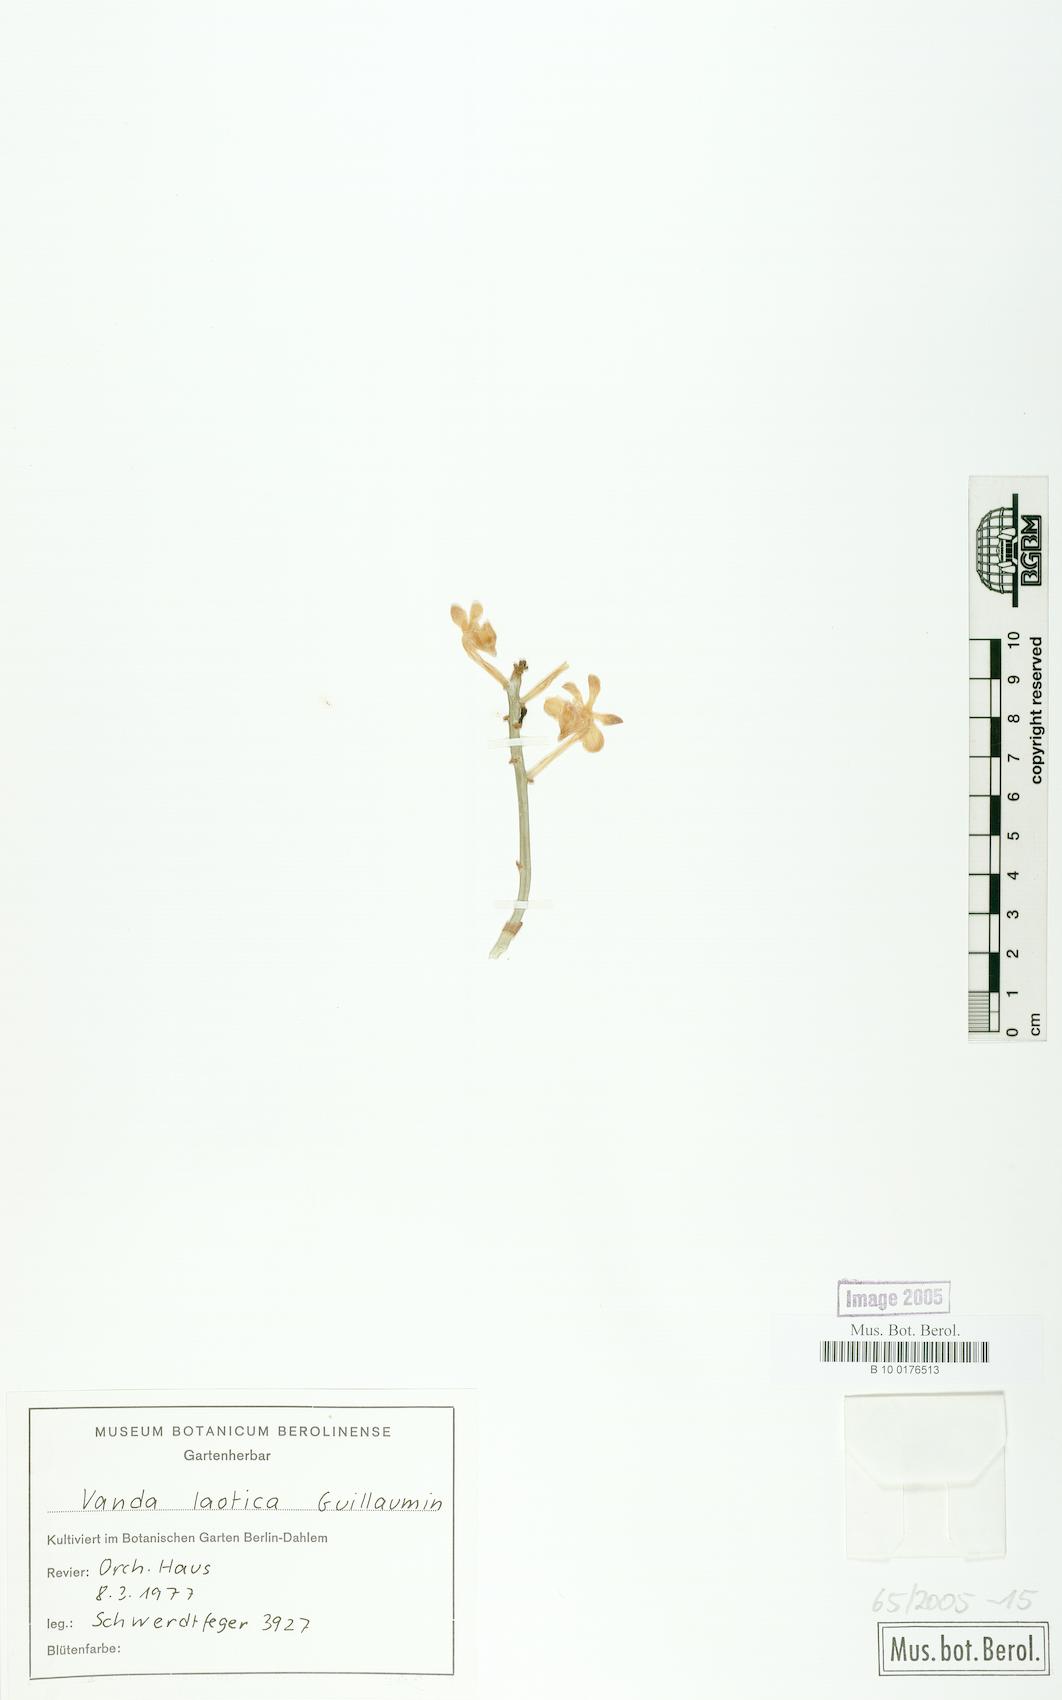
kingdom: Plantae
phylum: Tracheophyta
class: Liliopsida
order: Asparagales
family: Orchidaceae
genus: Vanda
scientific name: Vanda lilacina
